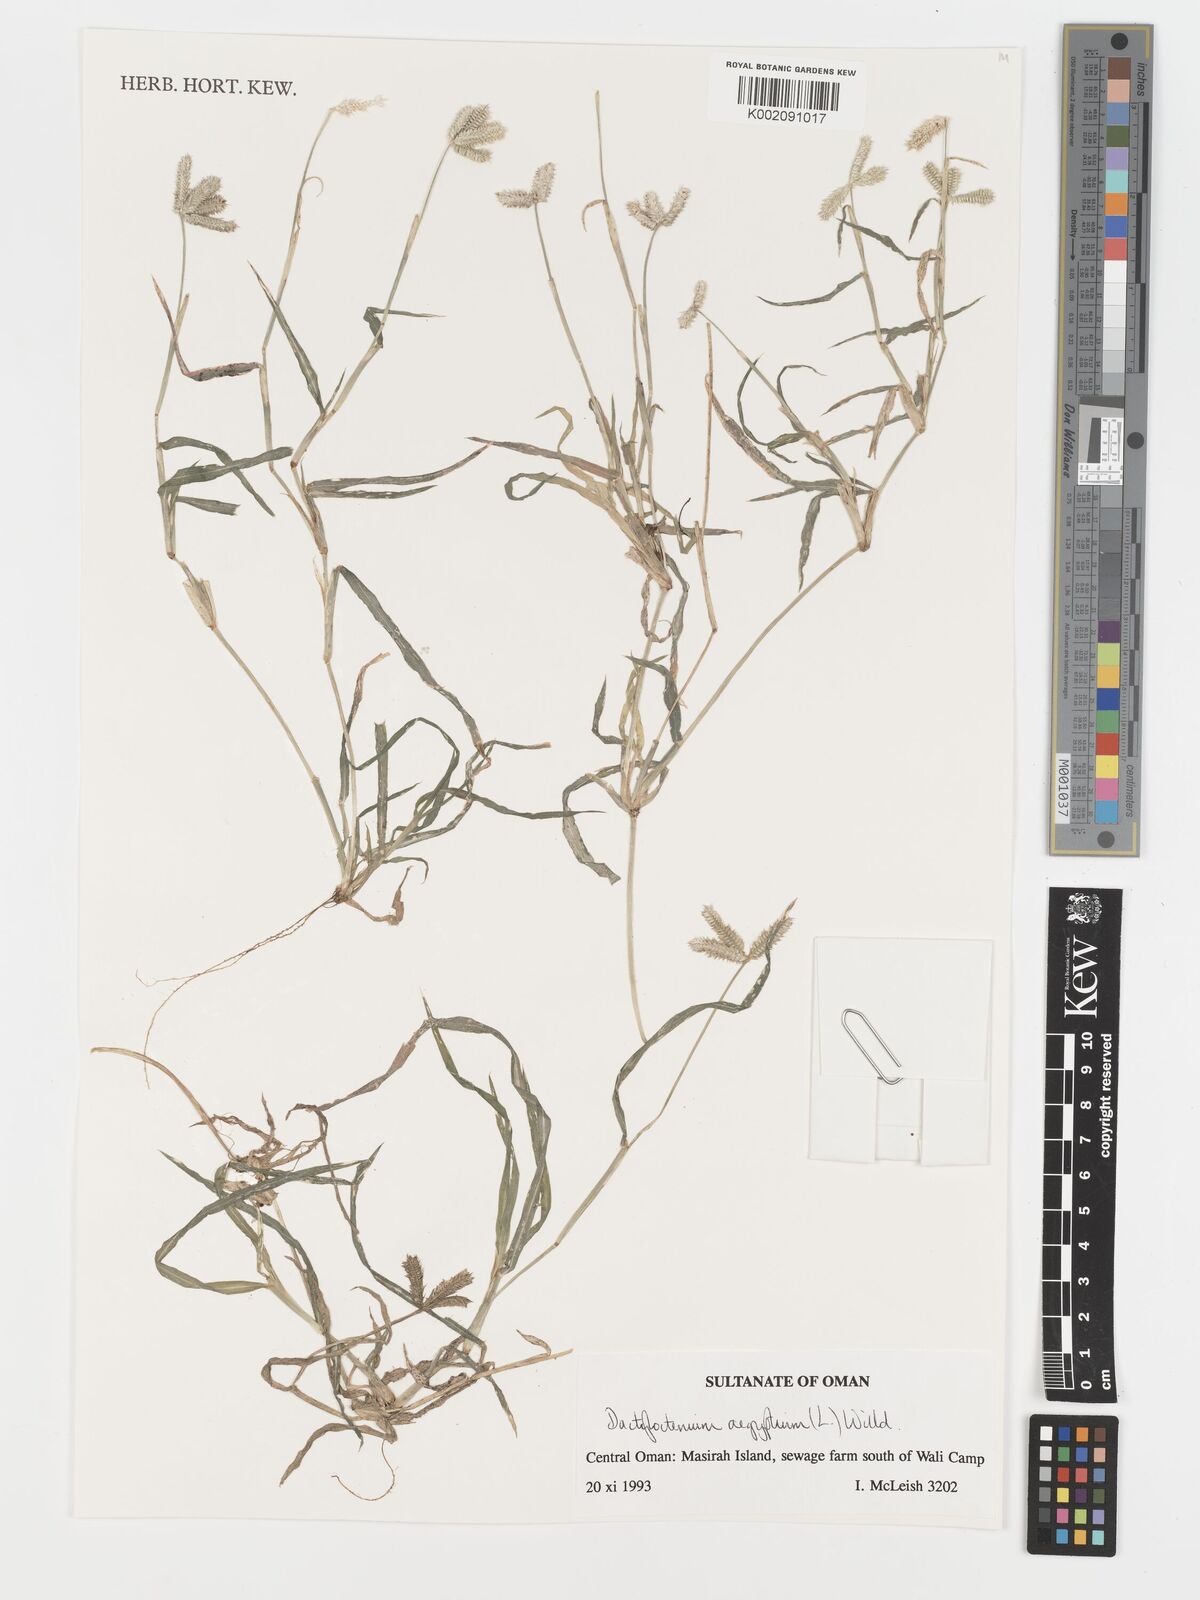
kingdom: Plantae
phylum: Tracheophyta
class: Liliopsida
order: Poales
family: Poaceae
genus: Dactyloctenium
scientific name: Dactyloctenium aegyptium
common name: Egyptian grass
